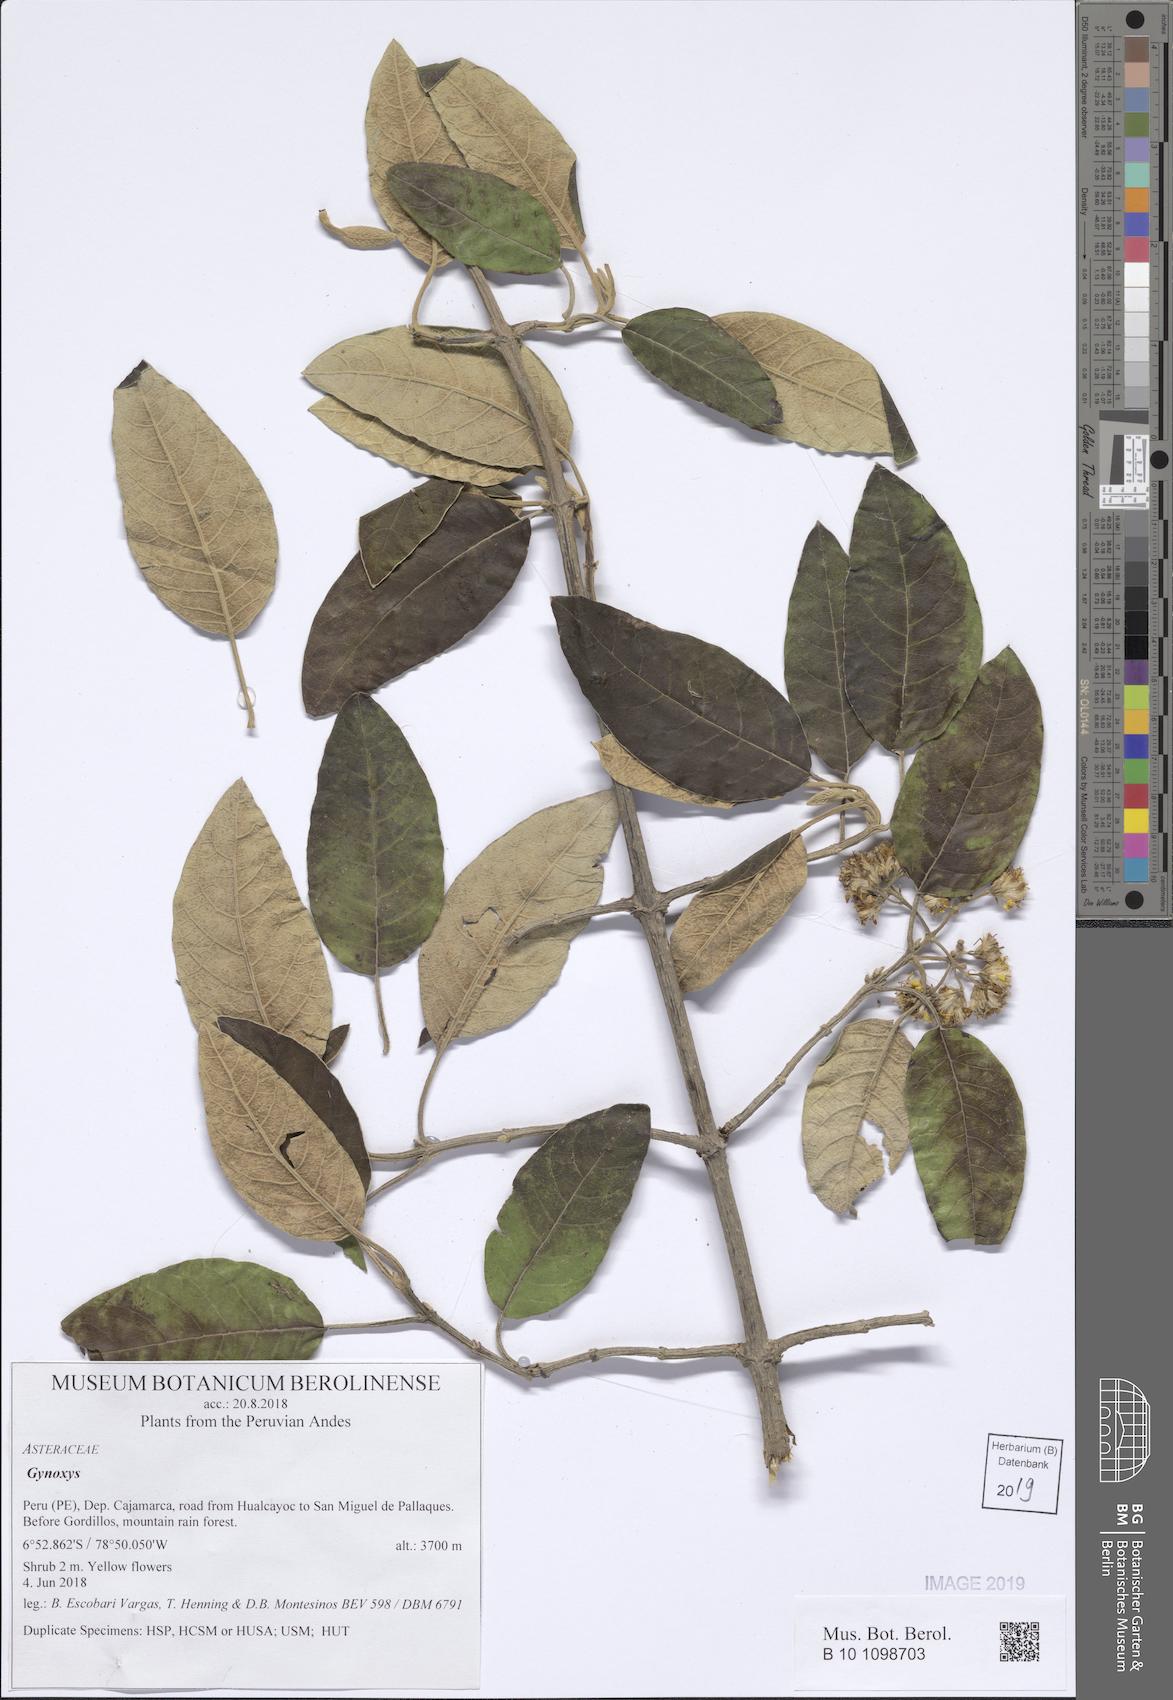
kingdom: Plantae
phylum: Tracheophyta
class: Magnoliopsida
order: Asterales
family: Asteraceae
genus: Gynoxys
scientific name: Gynoxys
